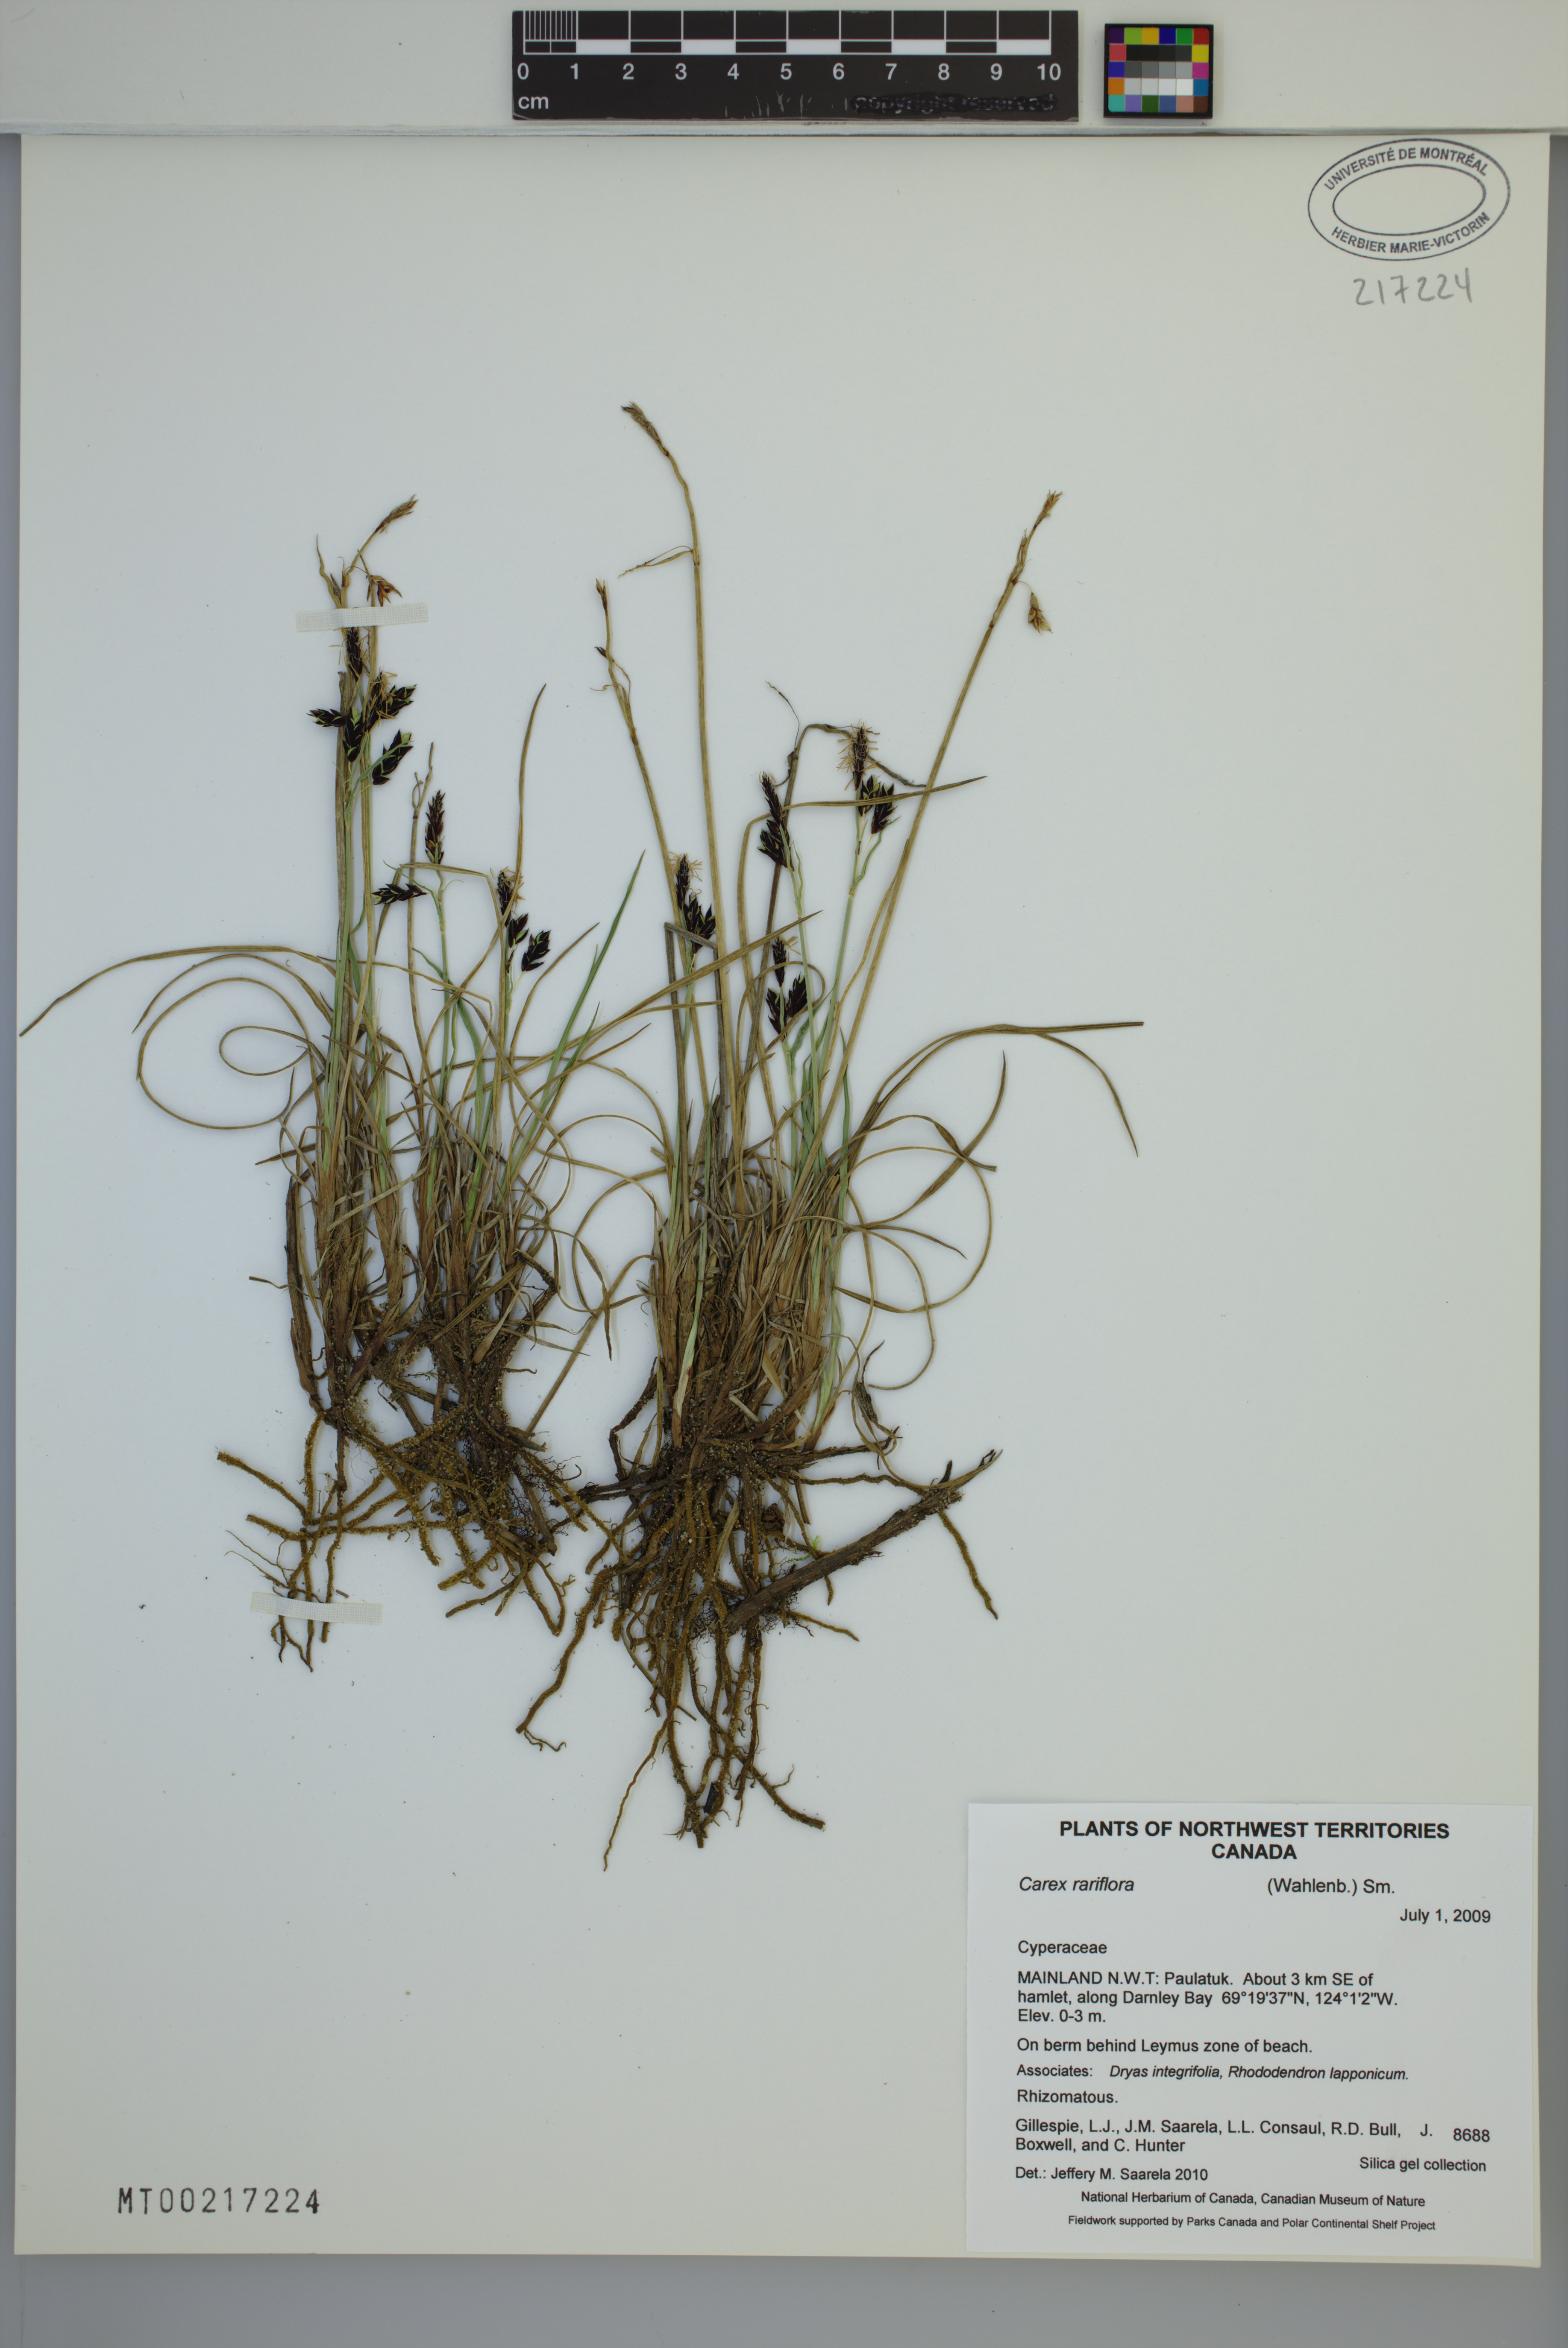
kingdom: Plantae
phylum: Tracheophyta
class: Liliopsida
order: Poales
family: Cyperaceae
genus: Carex
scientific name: Carex rariflora
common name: Loose-flowered alpine sedge
